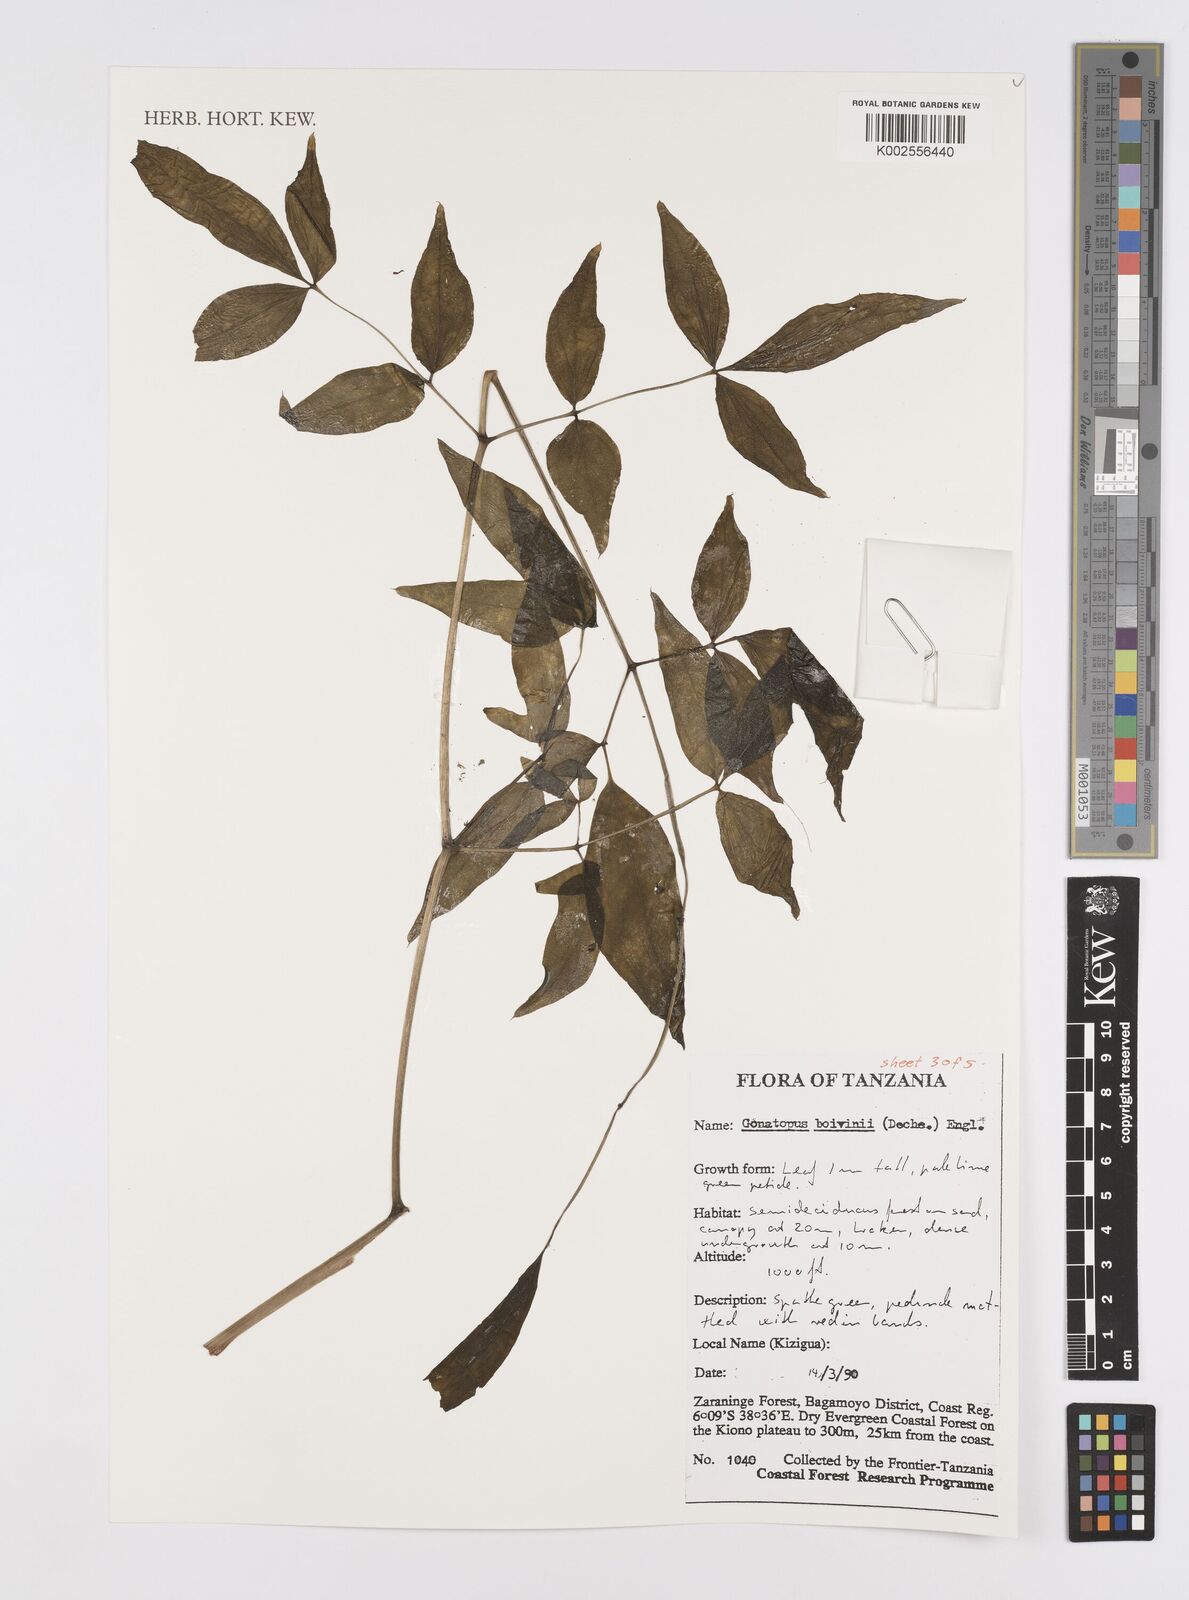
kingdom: Plantae
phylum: Tracheophyta
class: Liliopsida
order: Alismatales
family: Araceae
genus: Gonatopus
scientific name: Gonatopus boivinii
